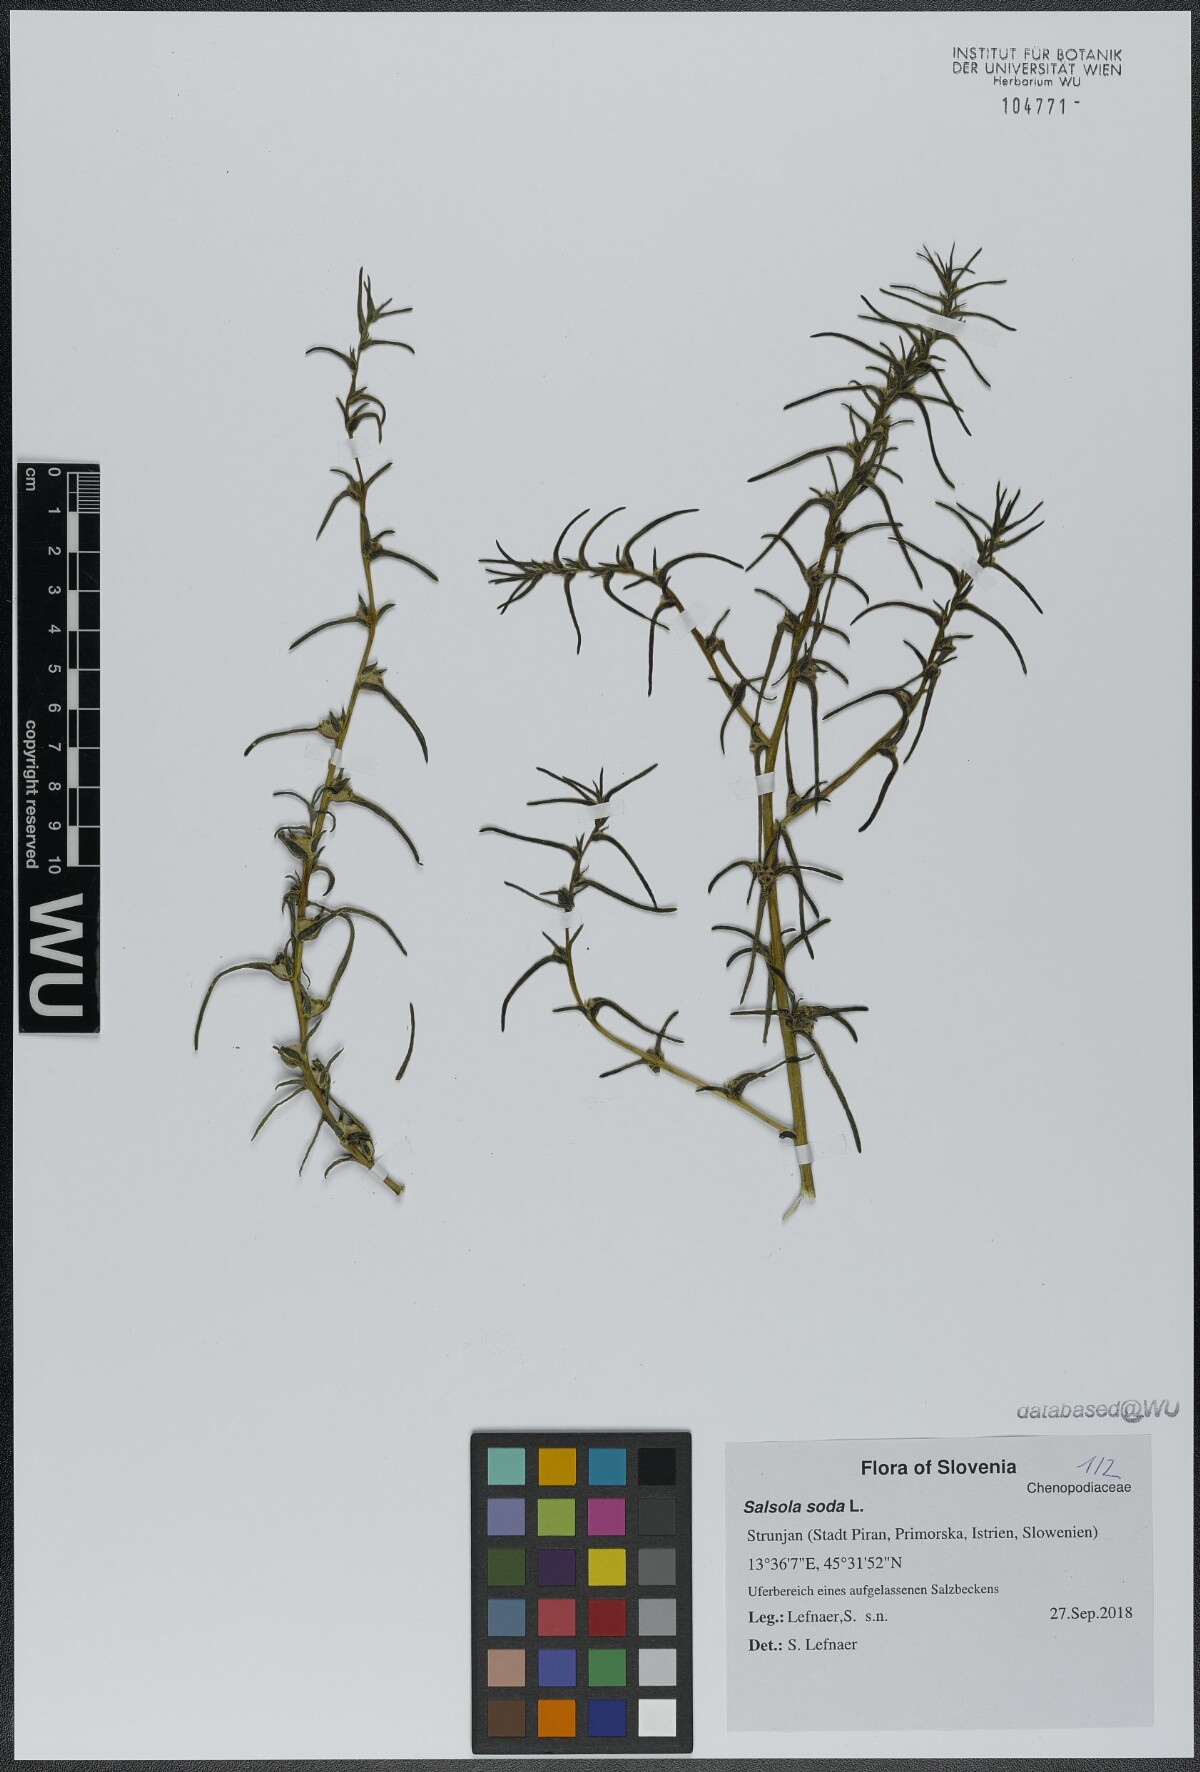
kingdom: Plantae
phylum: Tracheophyta
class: Magnoliopsida
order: Caryophyllales
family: Amaranthaceae
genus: Soda
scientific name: Soda inermis
